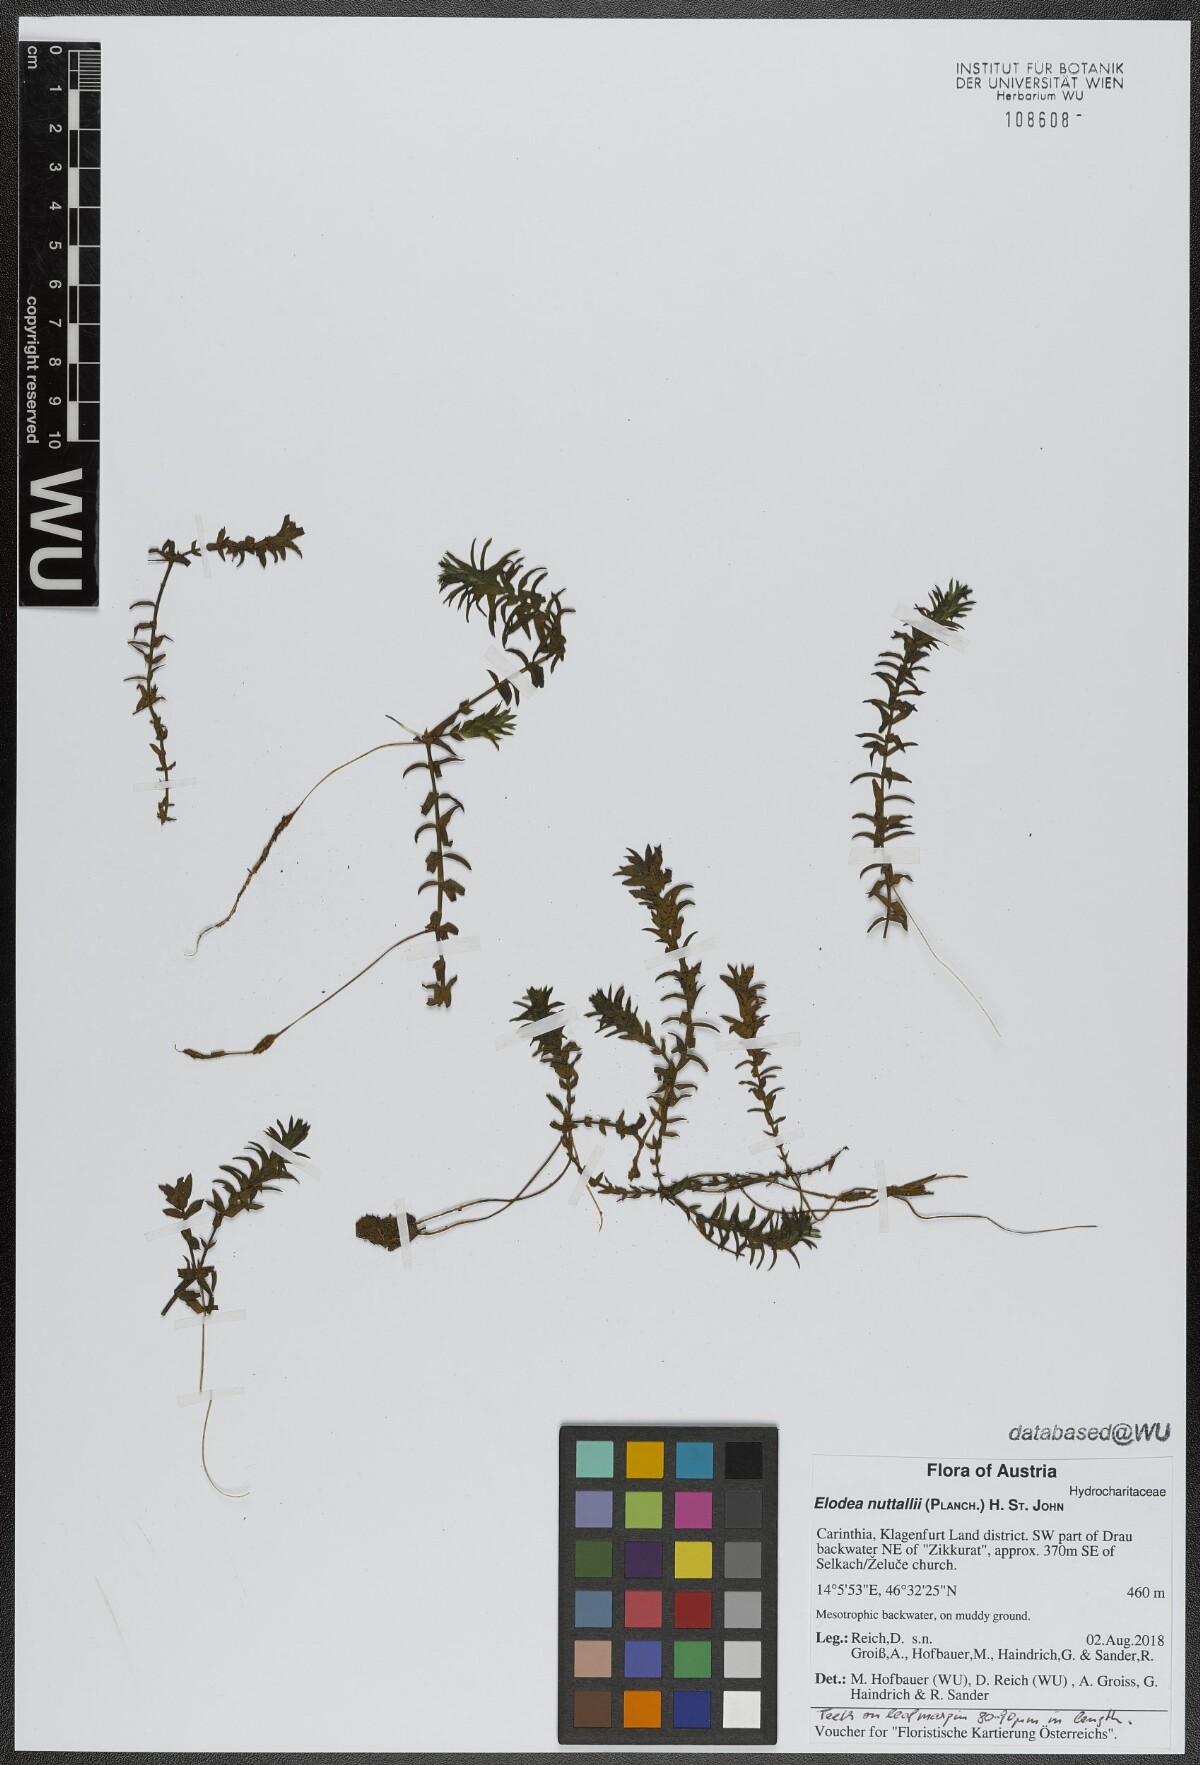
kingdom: Plantae
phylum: Tracheophyta
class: Liliopsida
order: Alismatales
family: Hydrocharitaceae
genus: Elodea
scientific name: Elodea nuttallii
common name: Nuttall's waterweed
